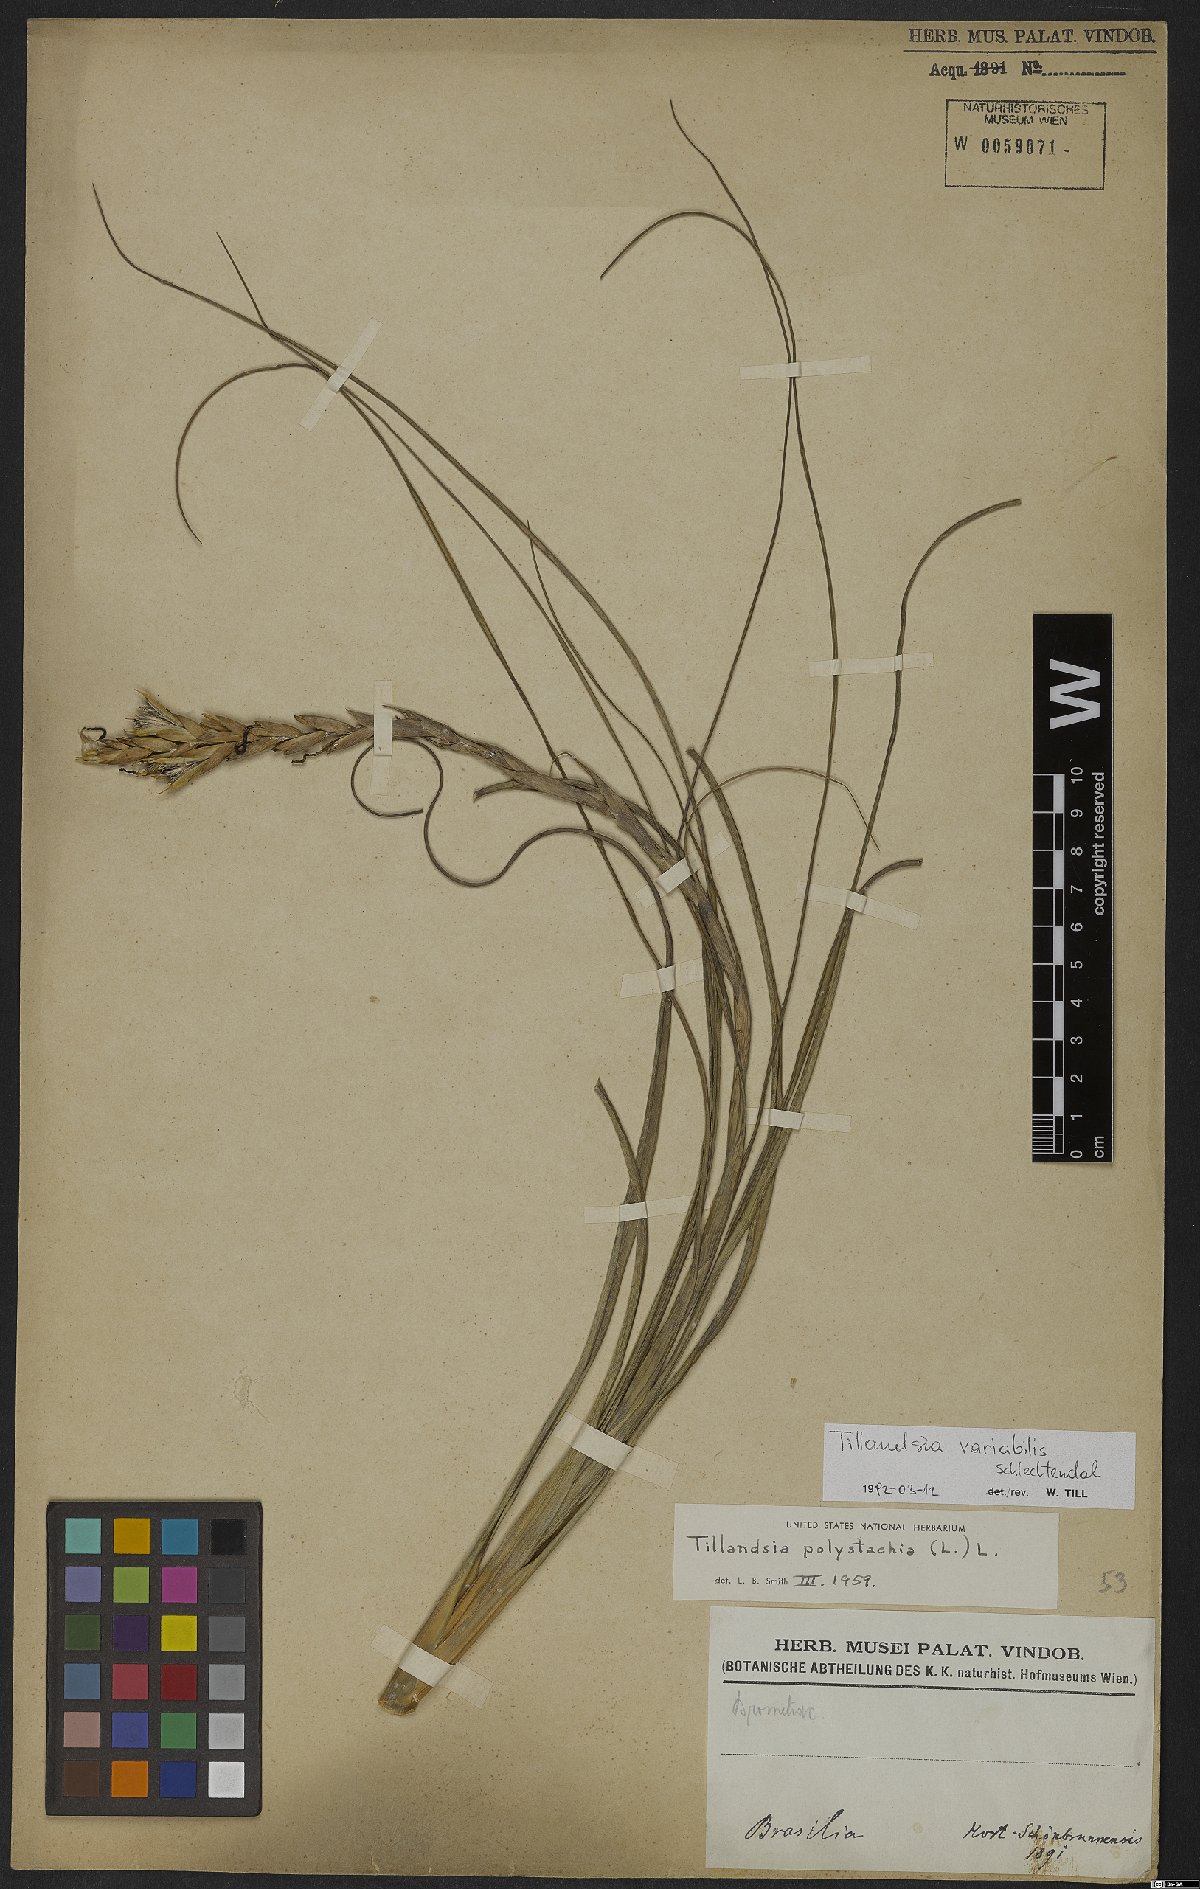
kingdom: Plantae
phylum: Tracheophyta
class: Liliopsida
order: Poales
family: Bromeliaceae
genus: Tillandsia
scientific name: Tillandsia variabilis
